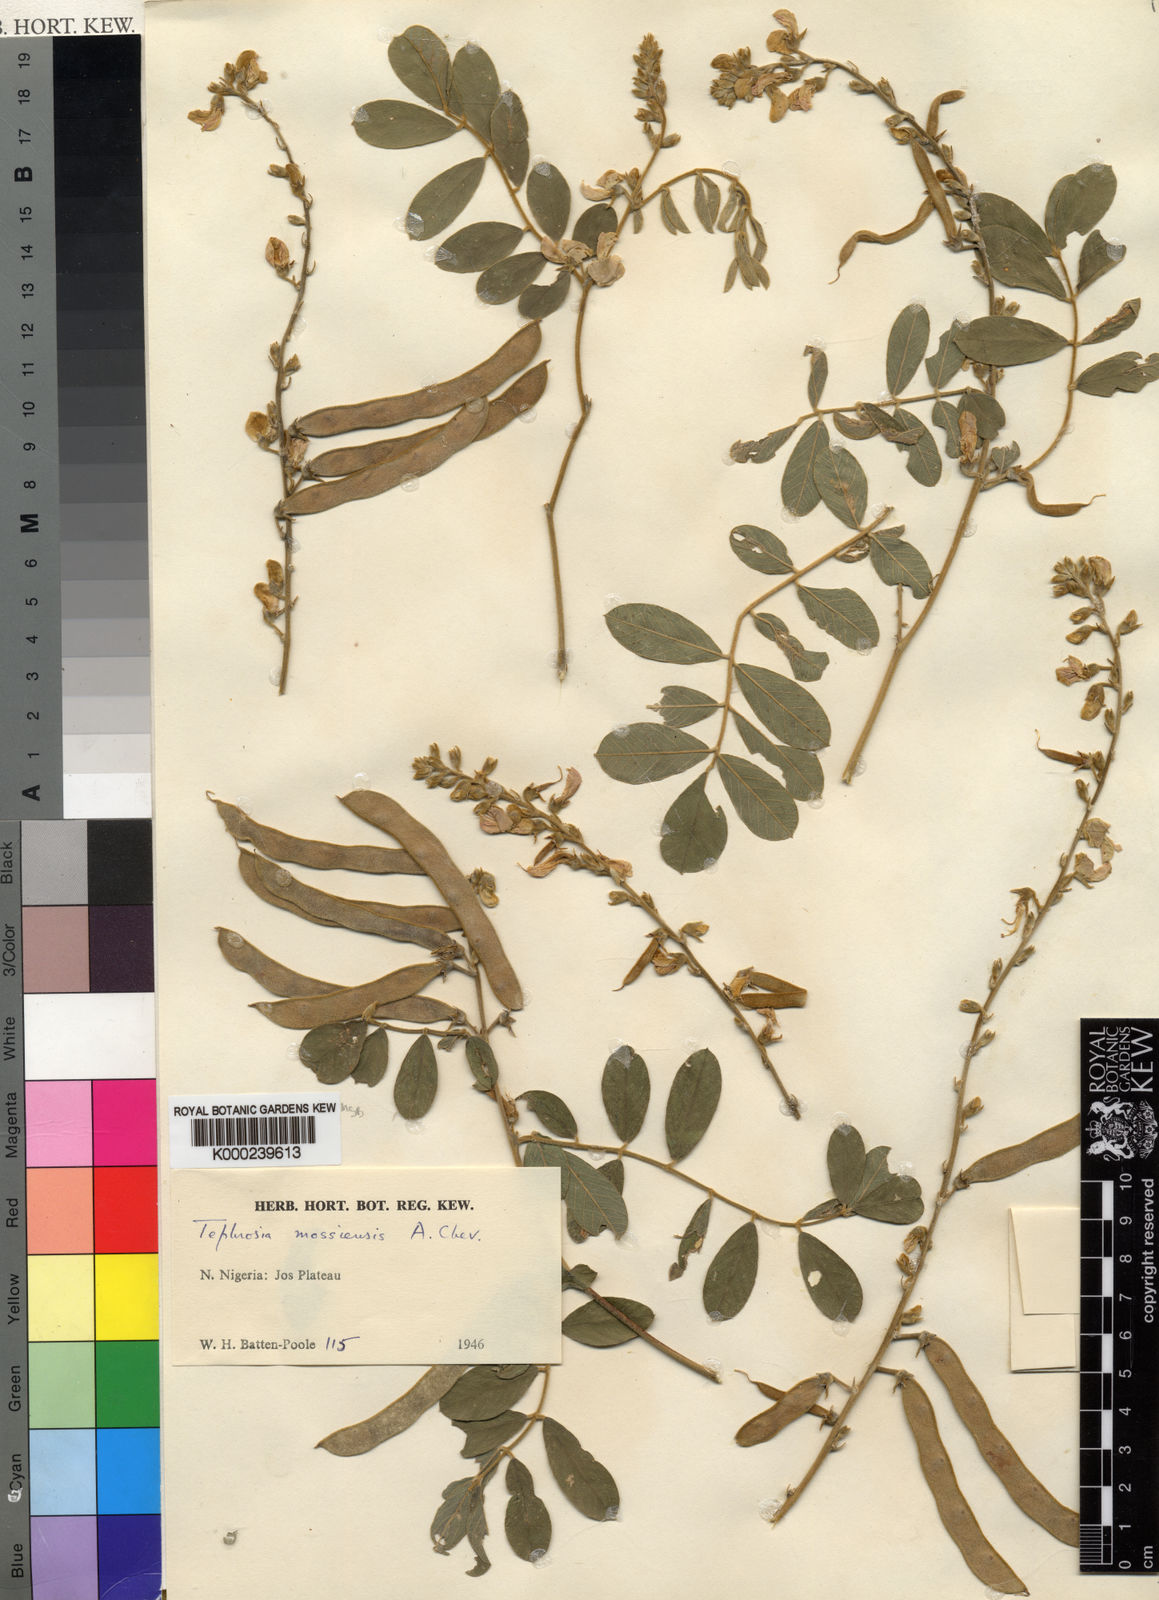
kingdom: Plantae
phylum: Tracheophyta
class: Magnoliopsida
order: Fabales
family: Fabaceae
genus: Tephrosia
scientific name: Tephrosia mossiensis
